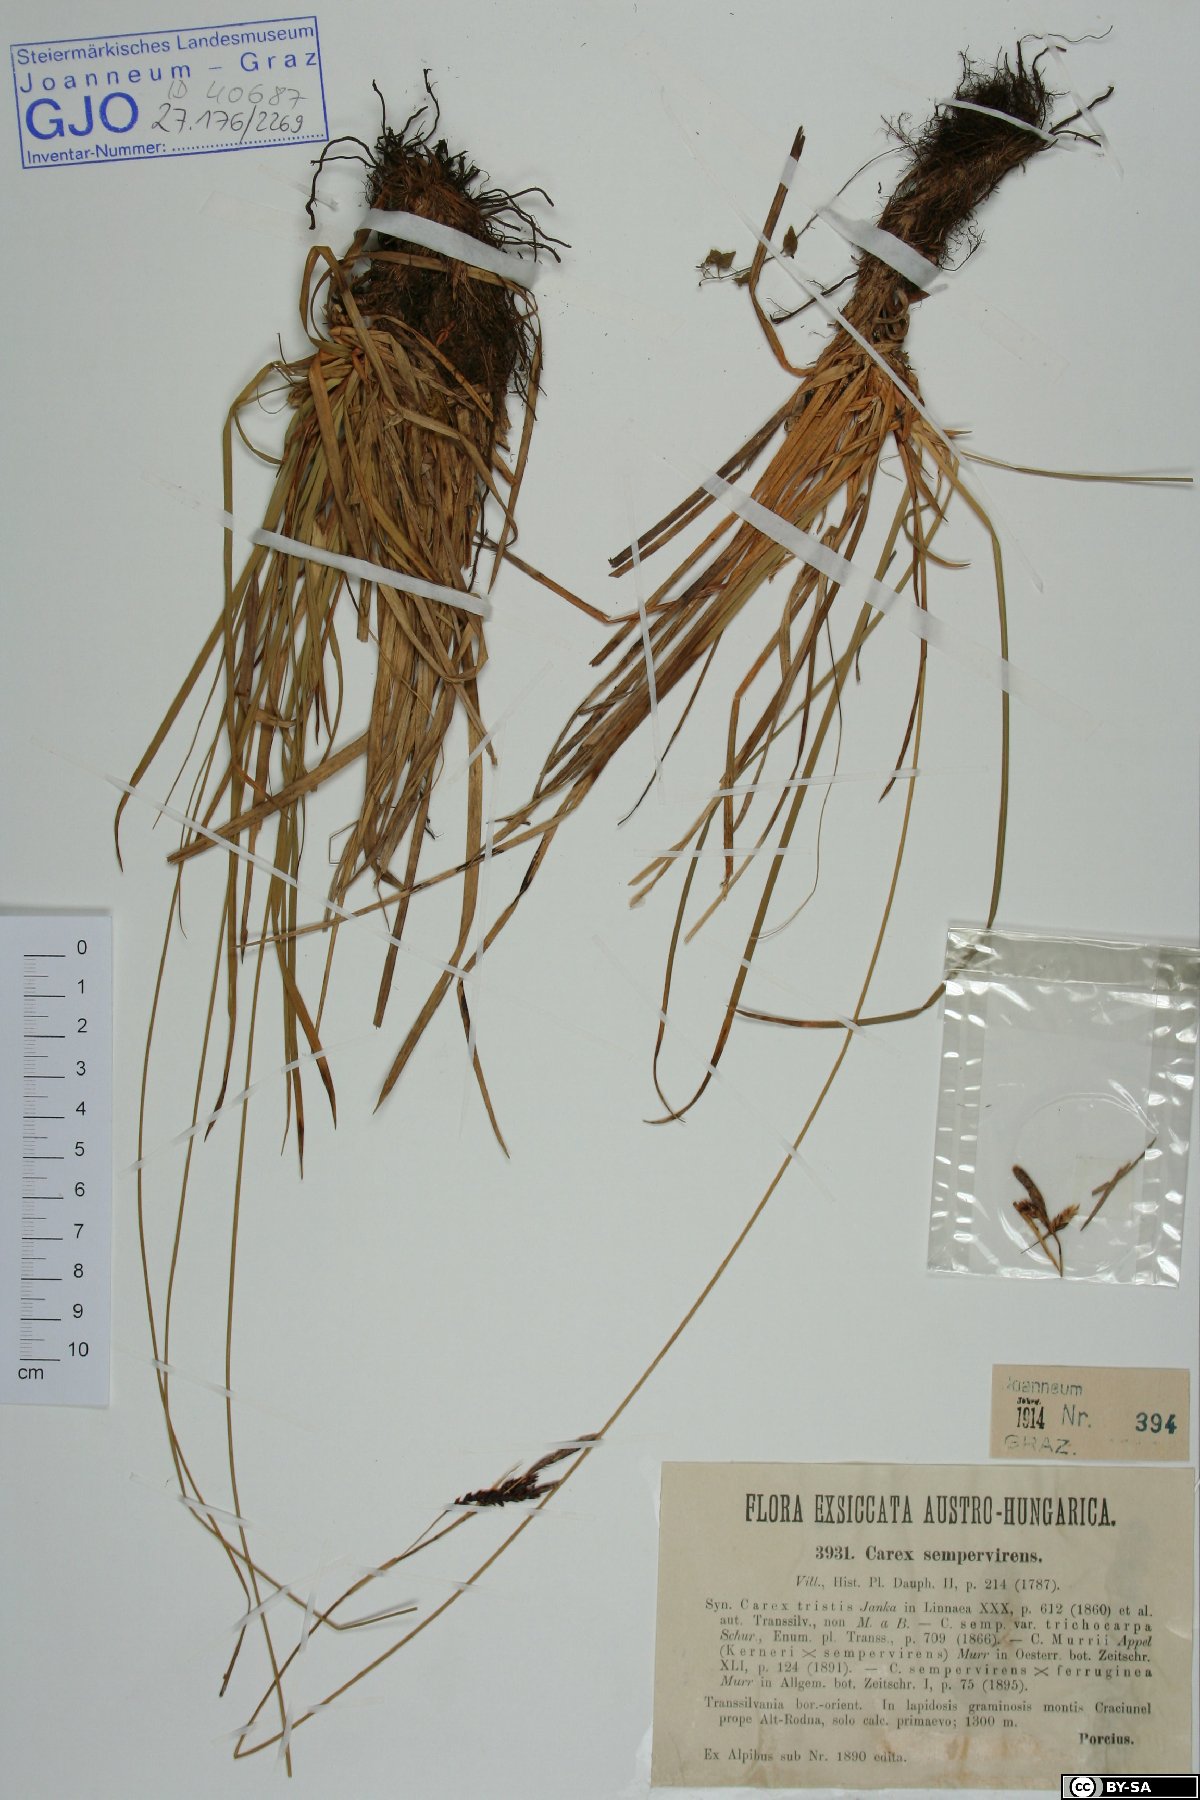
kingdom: Plantae
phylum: Tracheophyta
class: Liliopsida
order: Poales
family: Cyperaceae
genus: Carex
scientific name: Carex sempervirens
